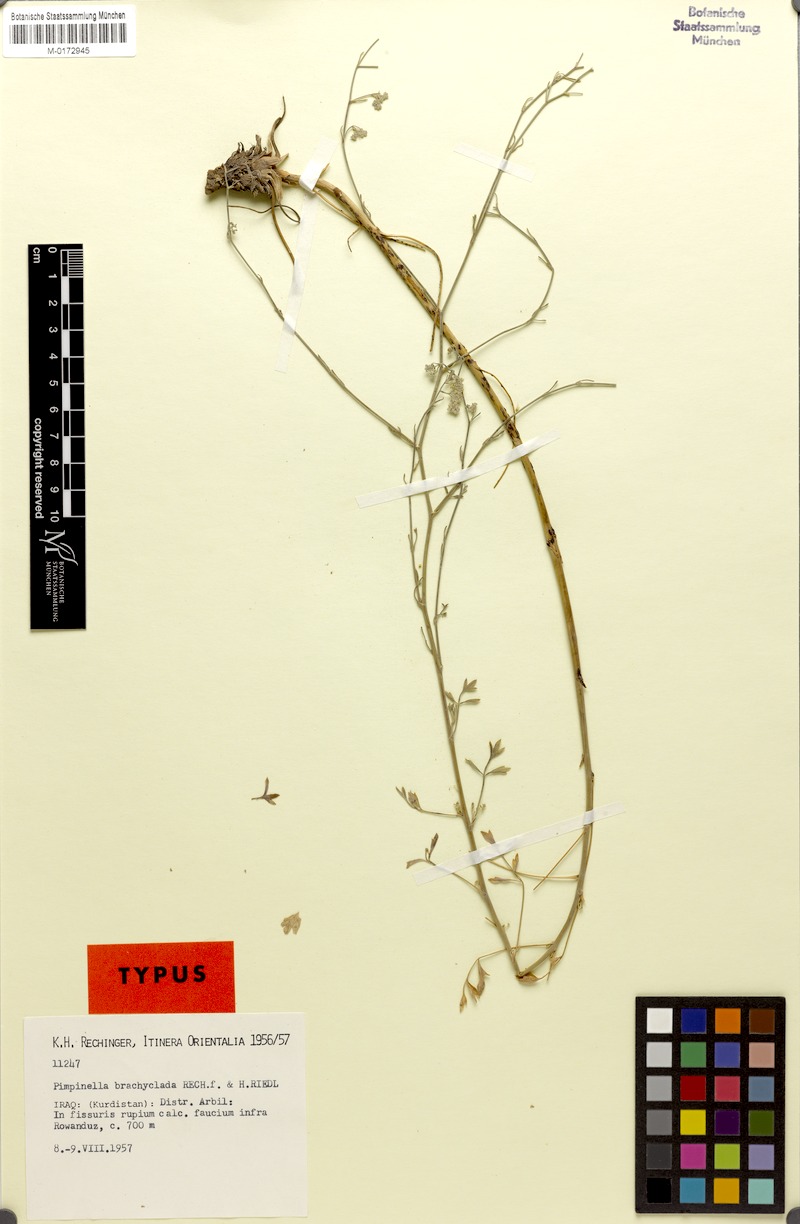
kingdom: Plantae
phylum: Tracheophyta
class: Magnoliopsida
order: Apiales
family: Apiaceae
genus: Pimpinella
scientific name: Pimpinella brachyclada
